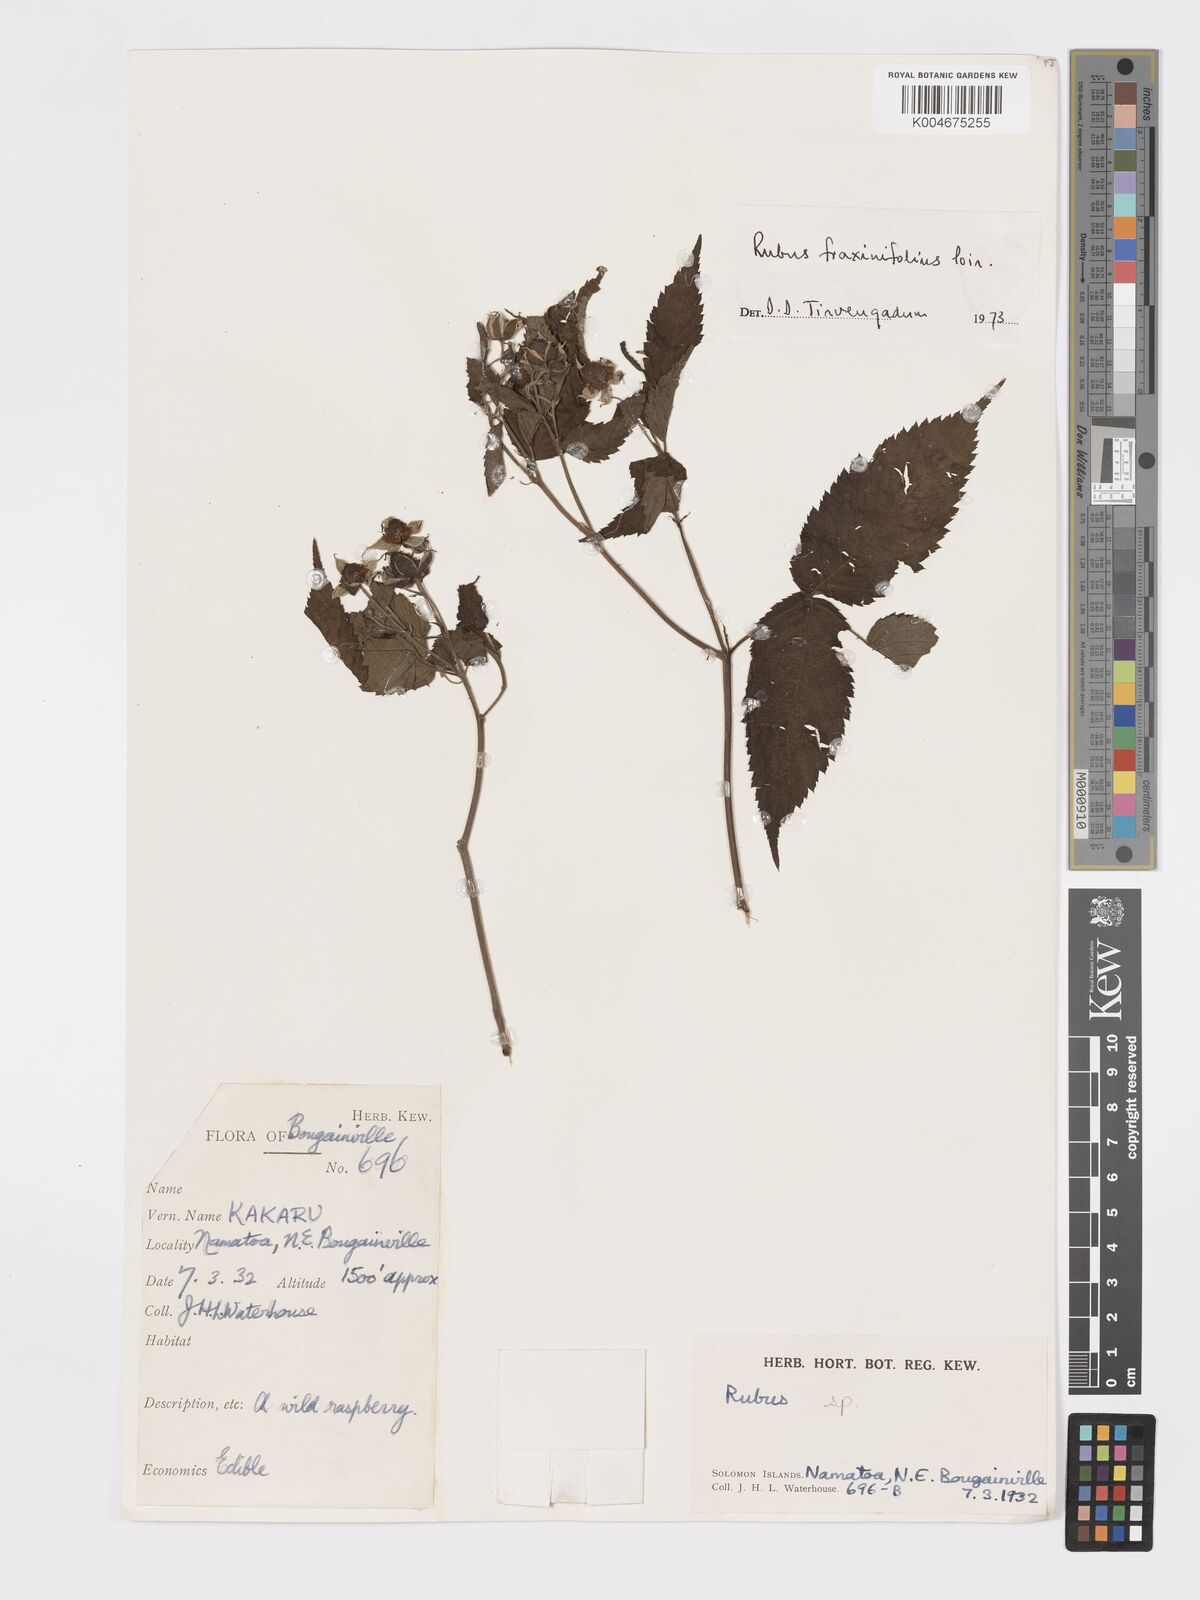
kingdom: Plantae
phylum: Tracheophyta
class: Magnoliopsida
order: Rosales
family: Rosaceae
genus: Rubus
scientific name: Rubus fraxinifolius
